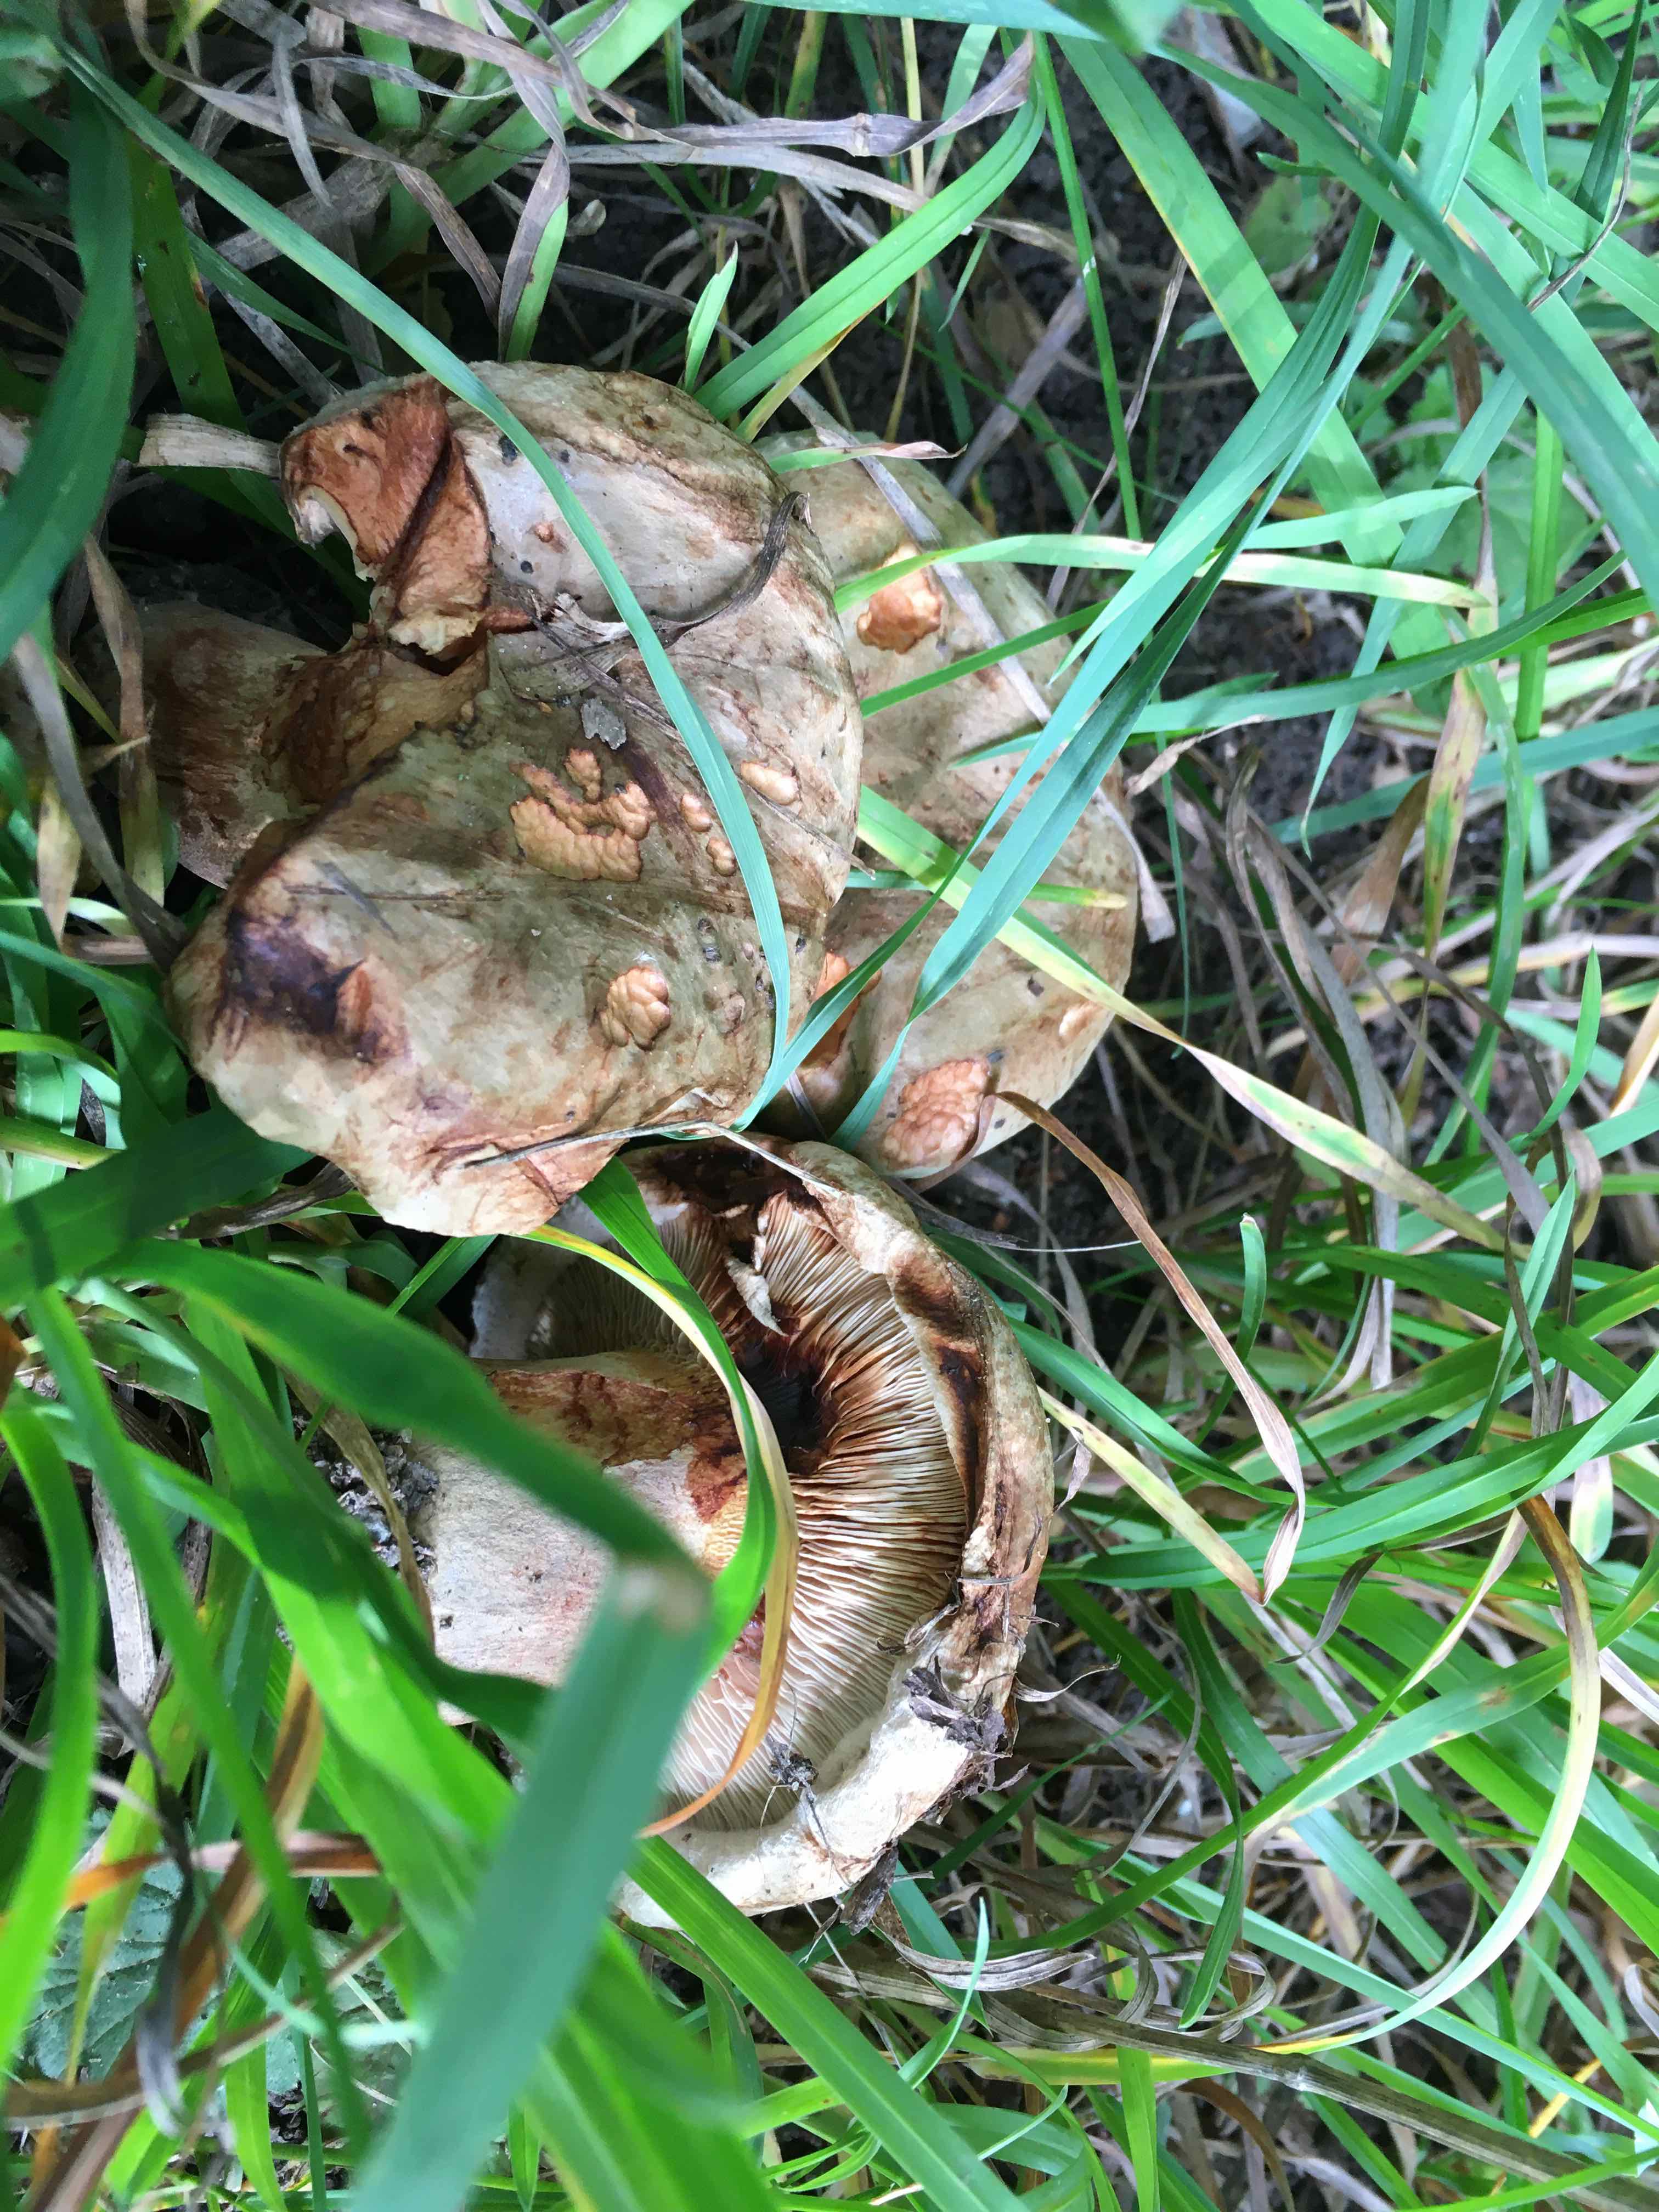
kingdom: Fungi
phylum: Basidiomycota
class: Agaricomycetes
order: Boletales
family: Paxillaceae
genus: Paxillus
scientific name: Paxillus
